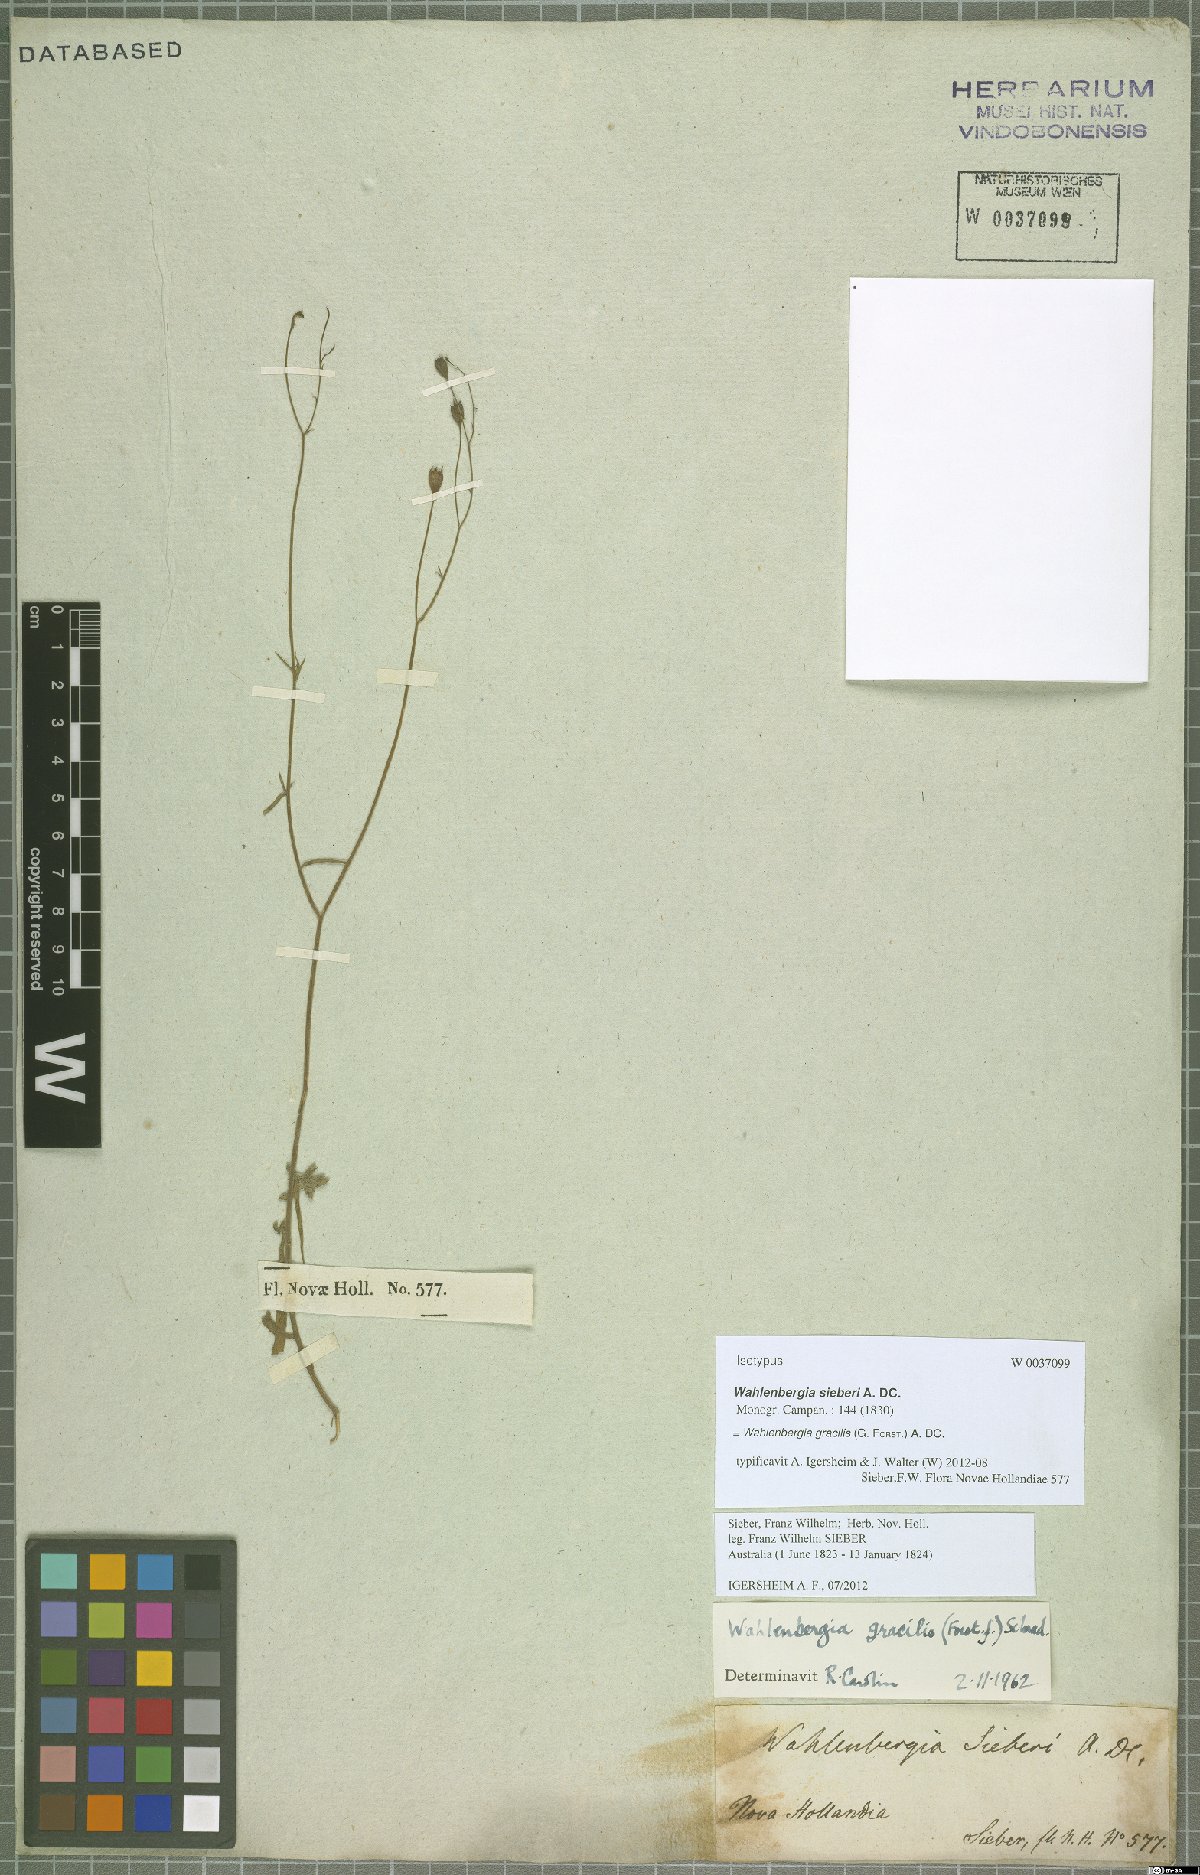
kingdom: Plantae
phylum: Tracheophyta
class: Magnoliopsida
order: Asterales
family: Campanulaceae
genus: Wahlenbergia
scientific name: Wahlenbergia gracilis
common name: Harebell
